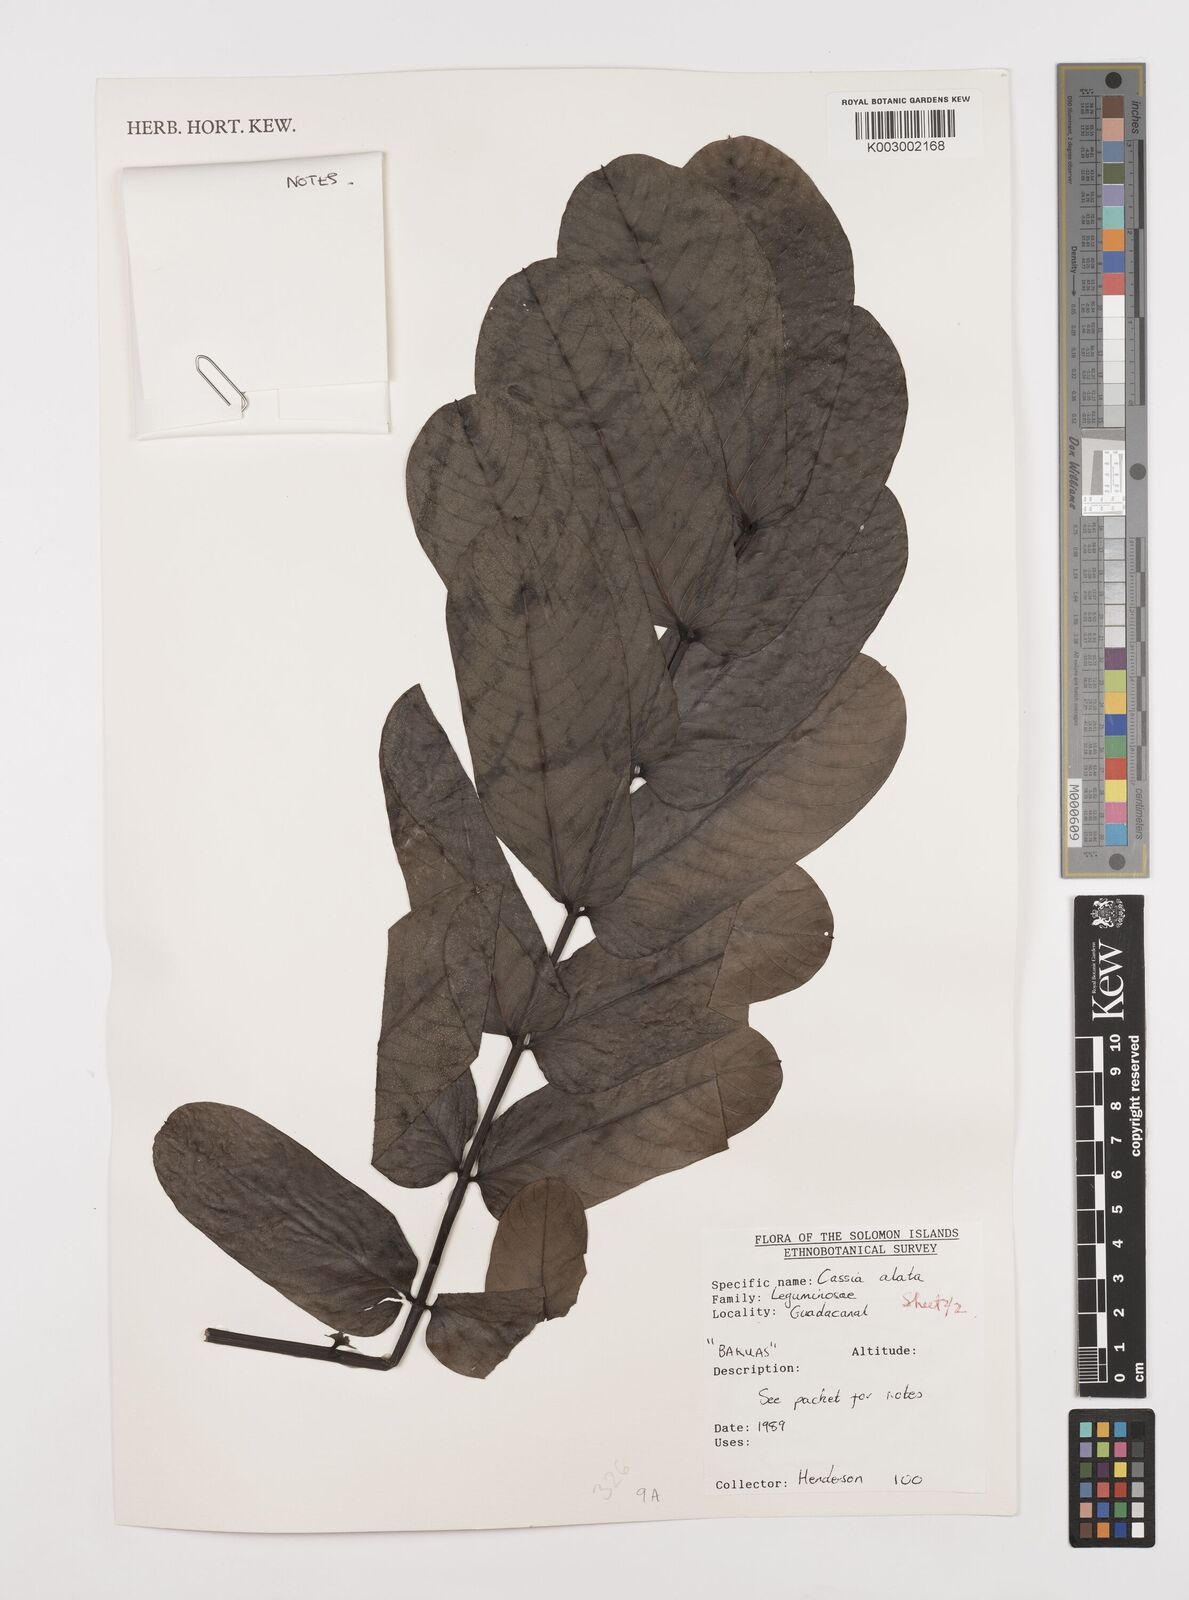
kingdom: Plantae
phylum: Tracheophyta
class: Magnoliopsida
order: Fabales
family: Fabaceae
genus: Senna
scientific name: Senna alata
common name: Emperor's candlesticks
